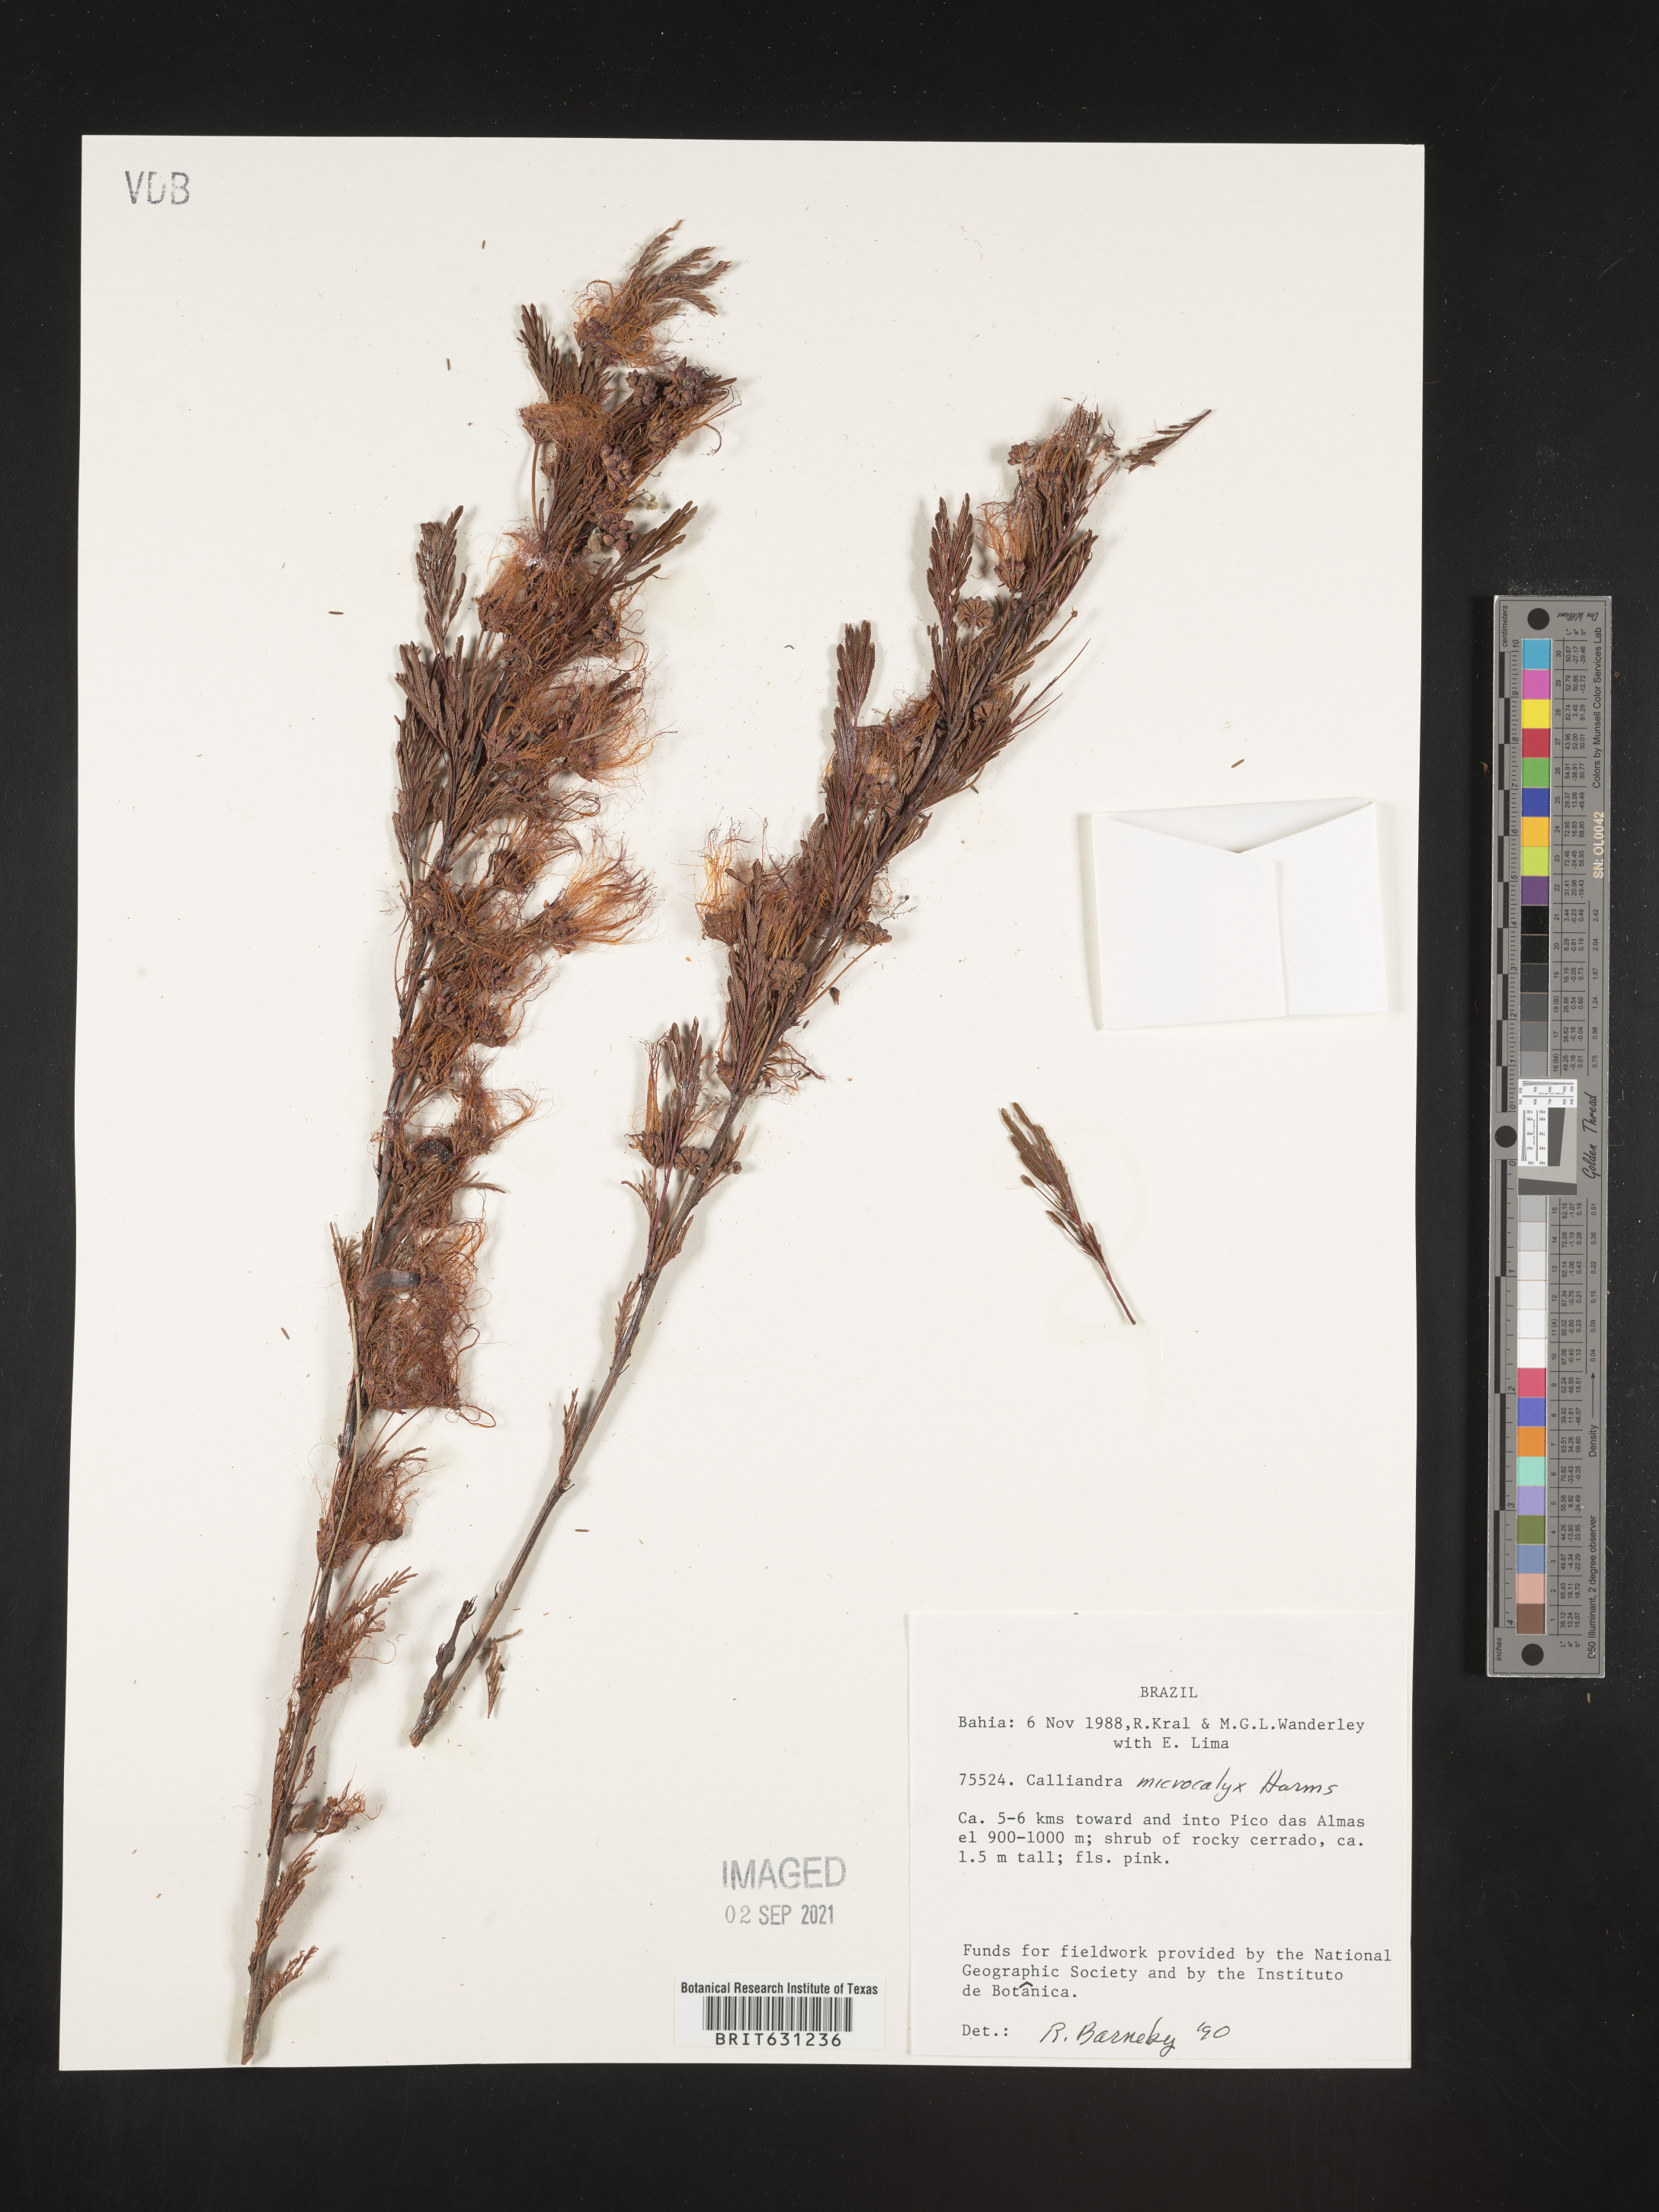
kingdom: Plantae
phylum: Tracheophyta
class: Magnoliopsida
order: Fabales
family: Fabaceae
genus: Calliandra
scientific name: Calliandra parvifolia
